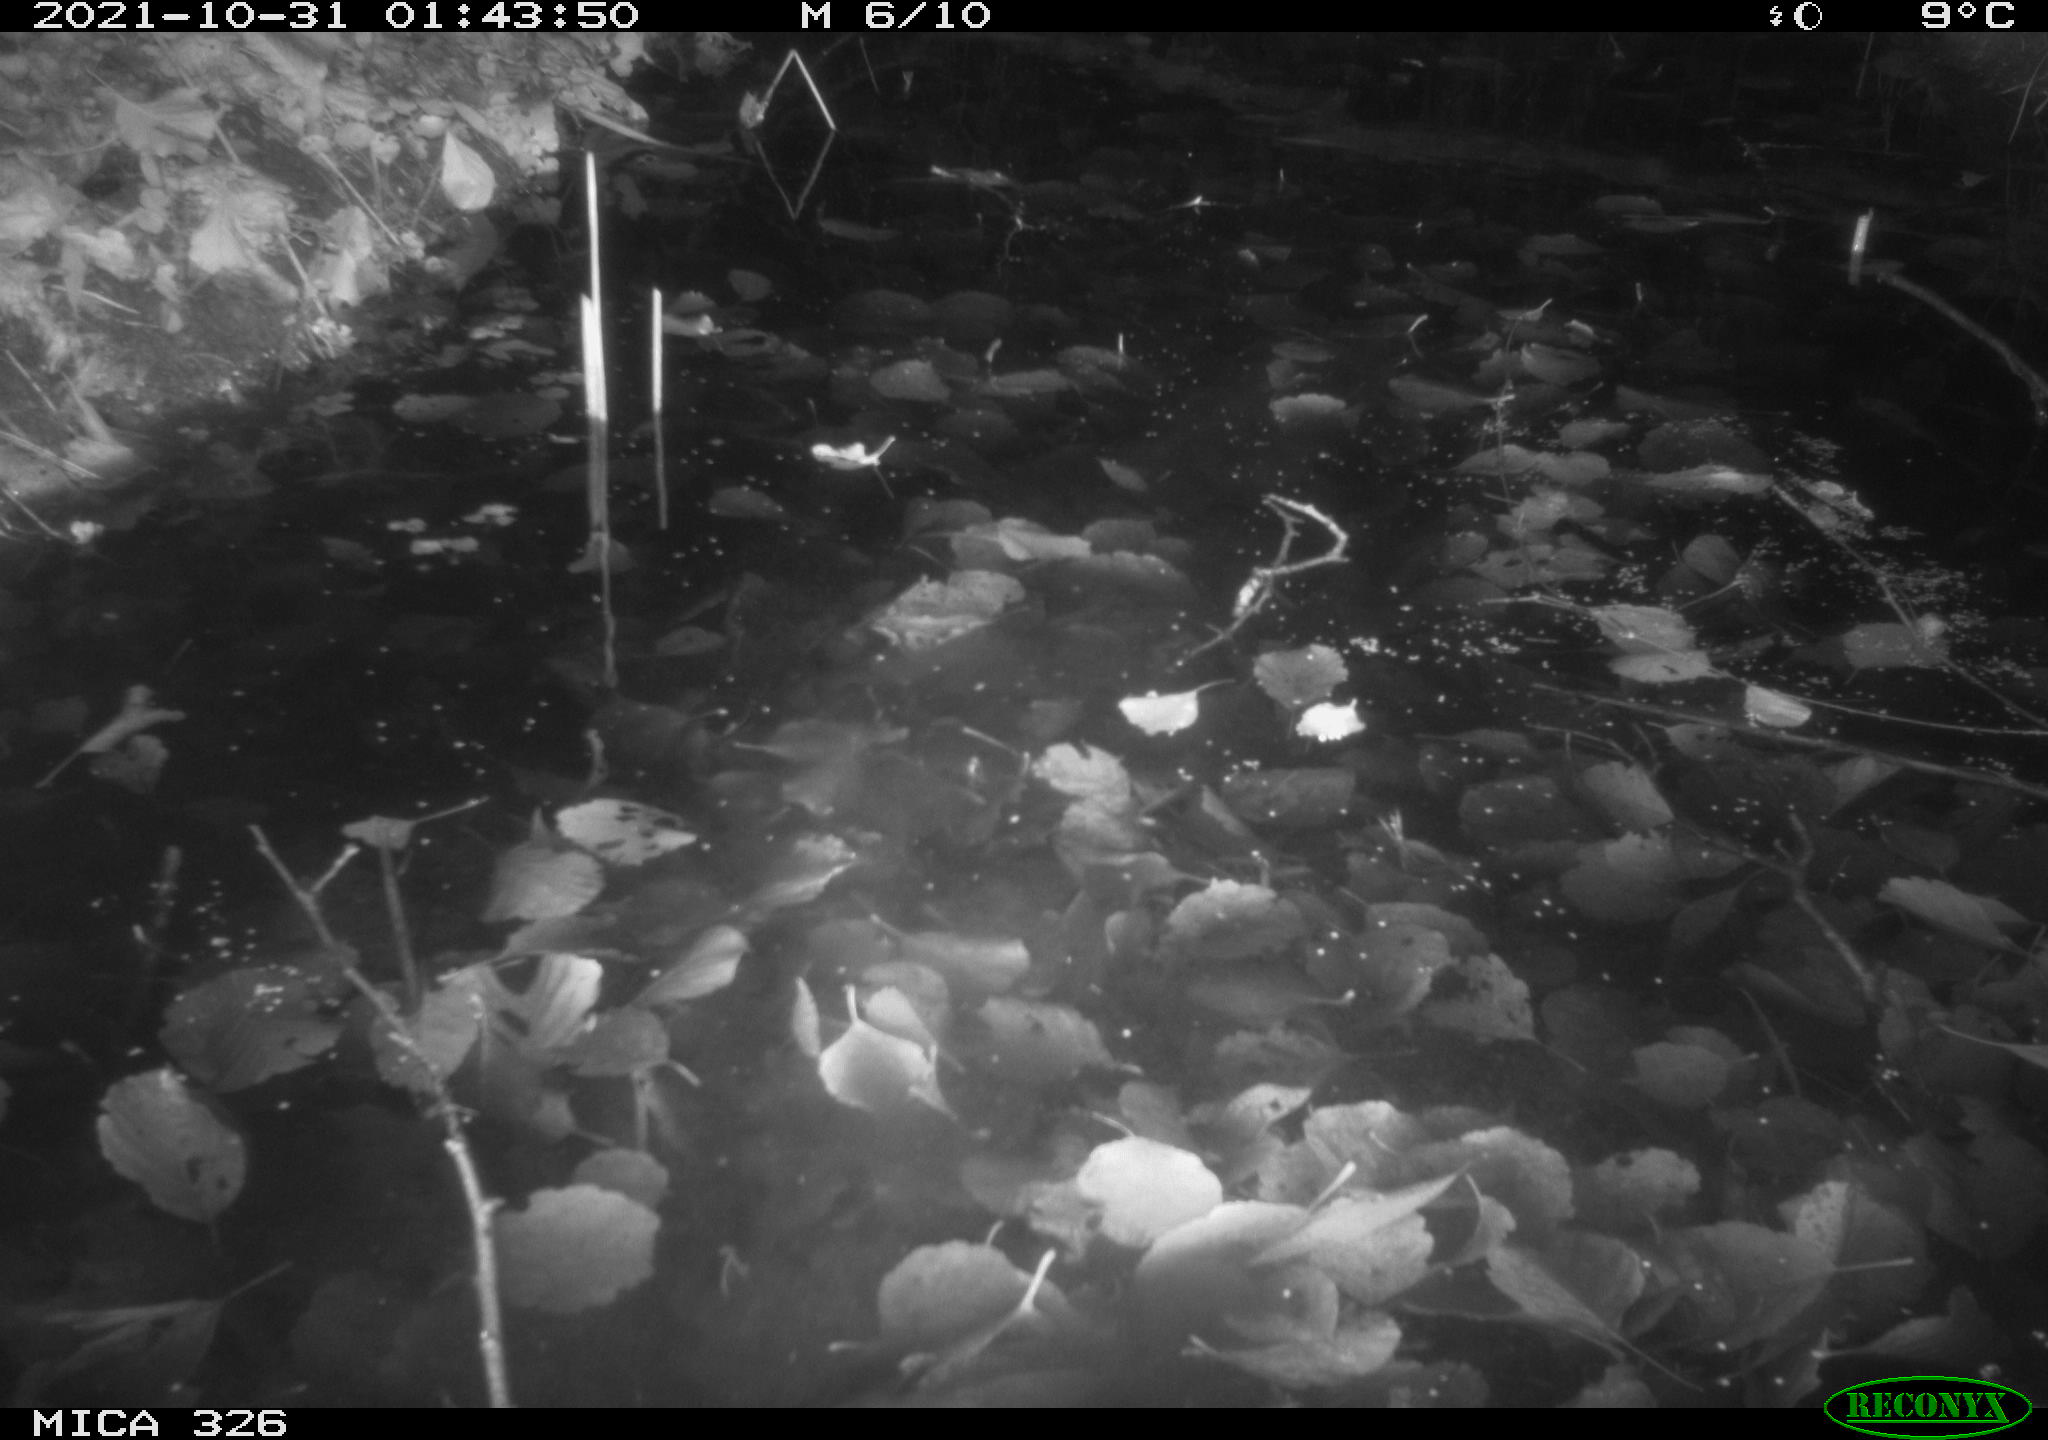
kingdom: Animalia
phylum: Chordata
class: Mammalia
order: Rodentia
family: Myocastoridae
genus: Myocastor
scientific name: Myocastor coypus
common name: Coypu
